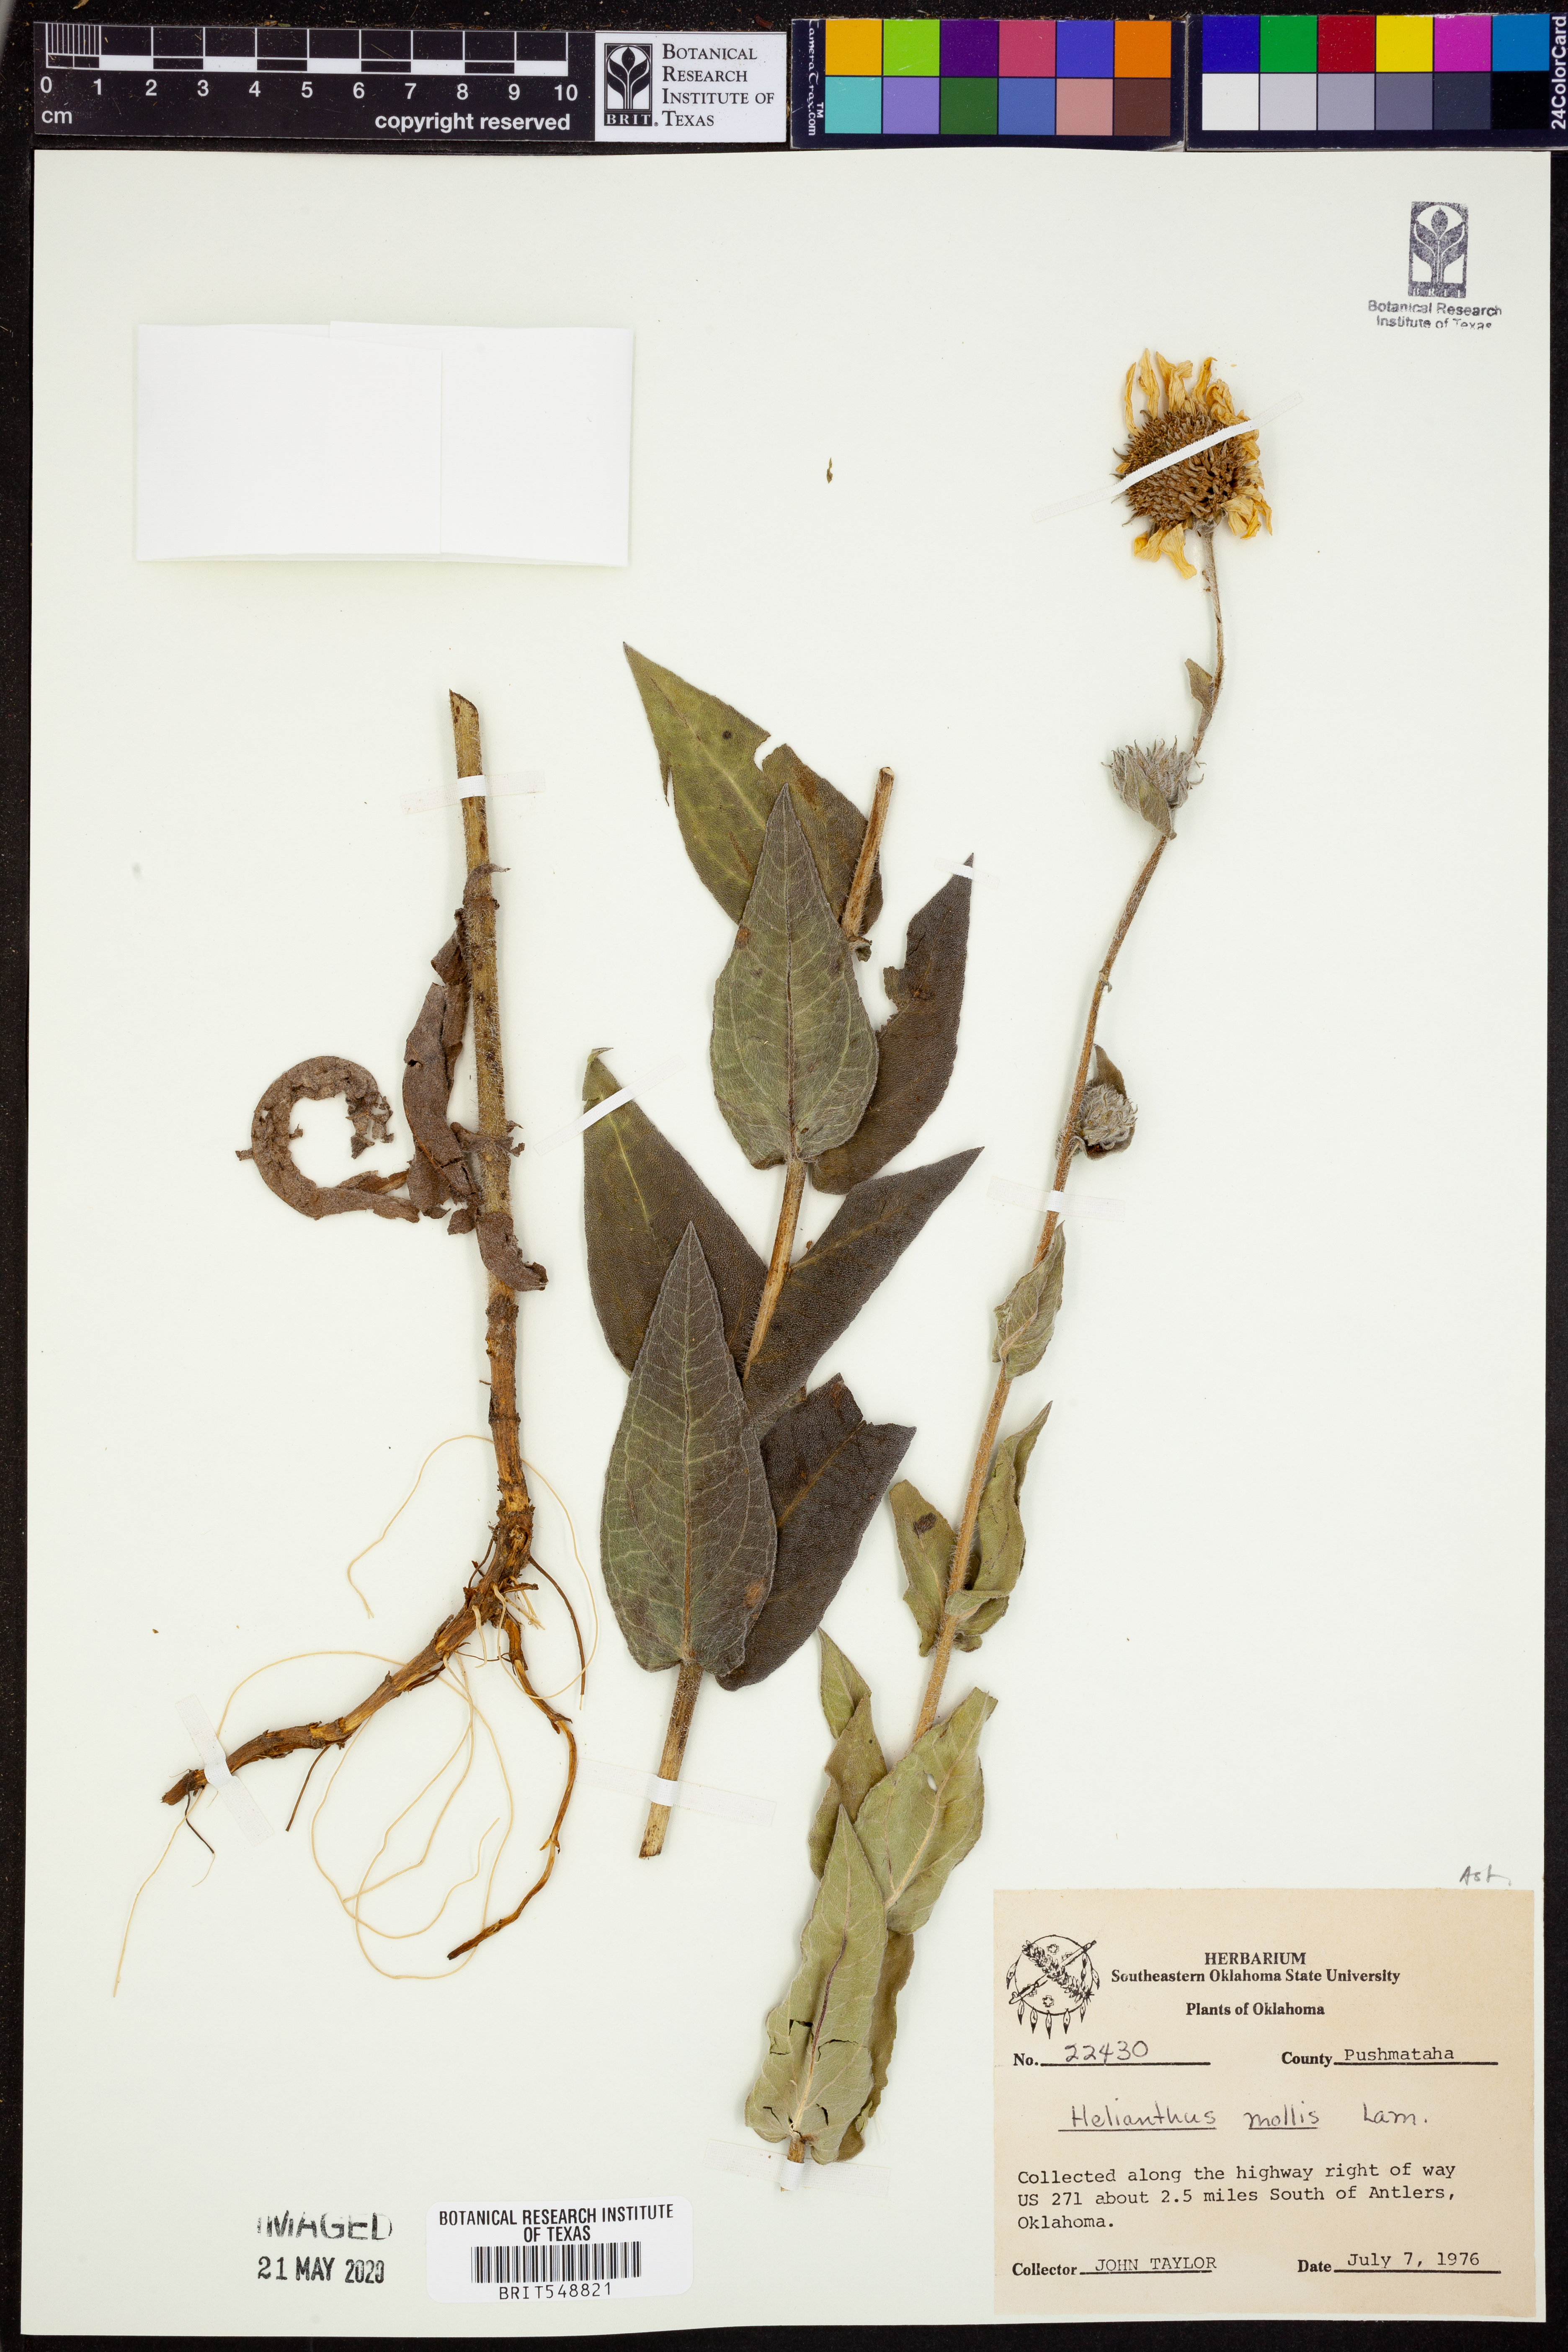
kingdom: Plantae
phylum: Tracheophyta
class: Magnoliopsida
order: Asterales
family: Asteraceae
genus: Helianthus
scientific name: Helianthus mollis
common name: Ashy sunflower
